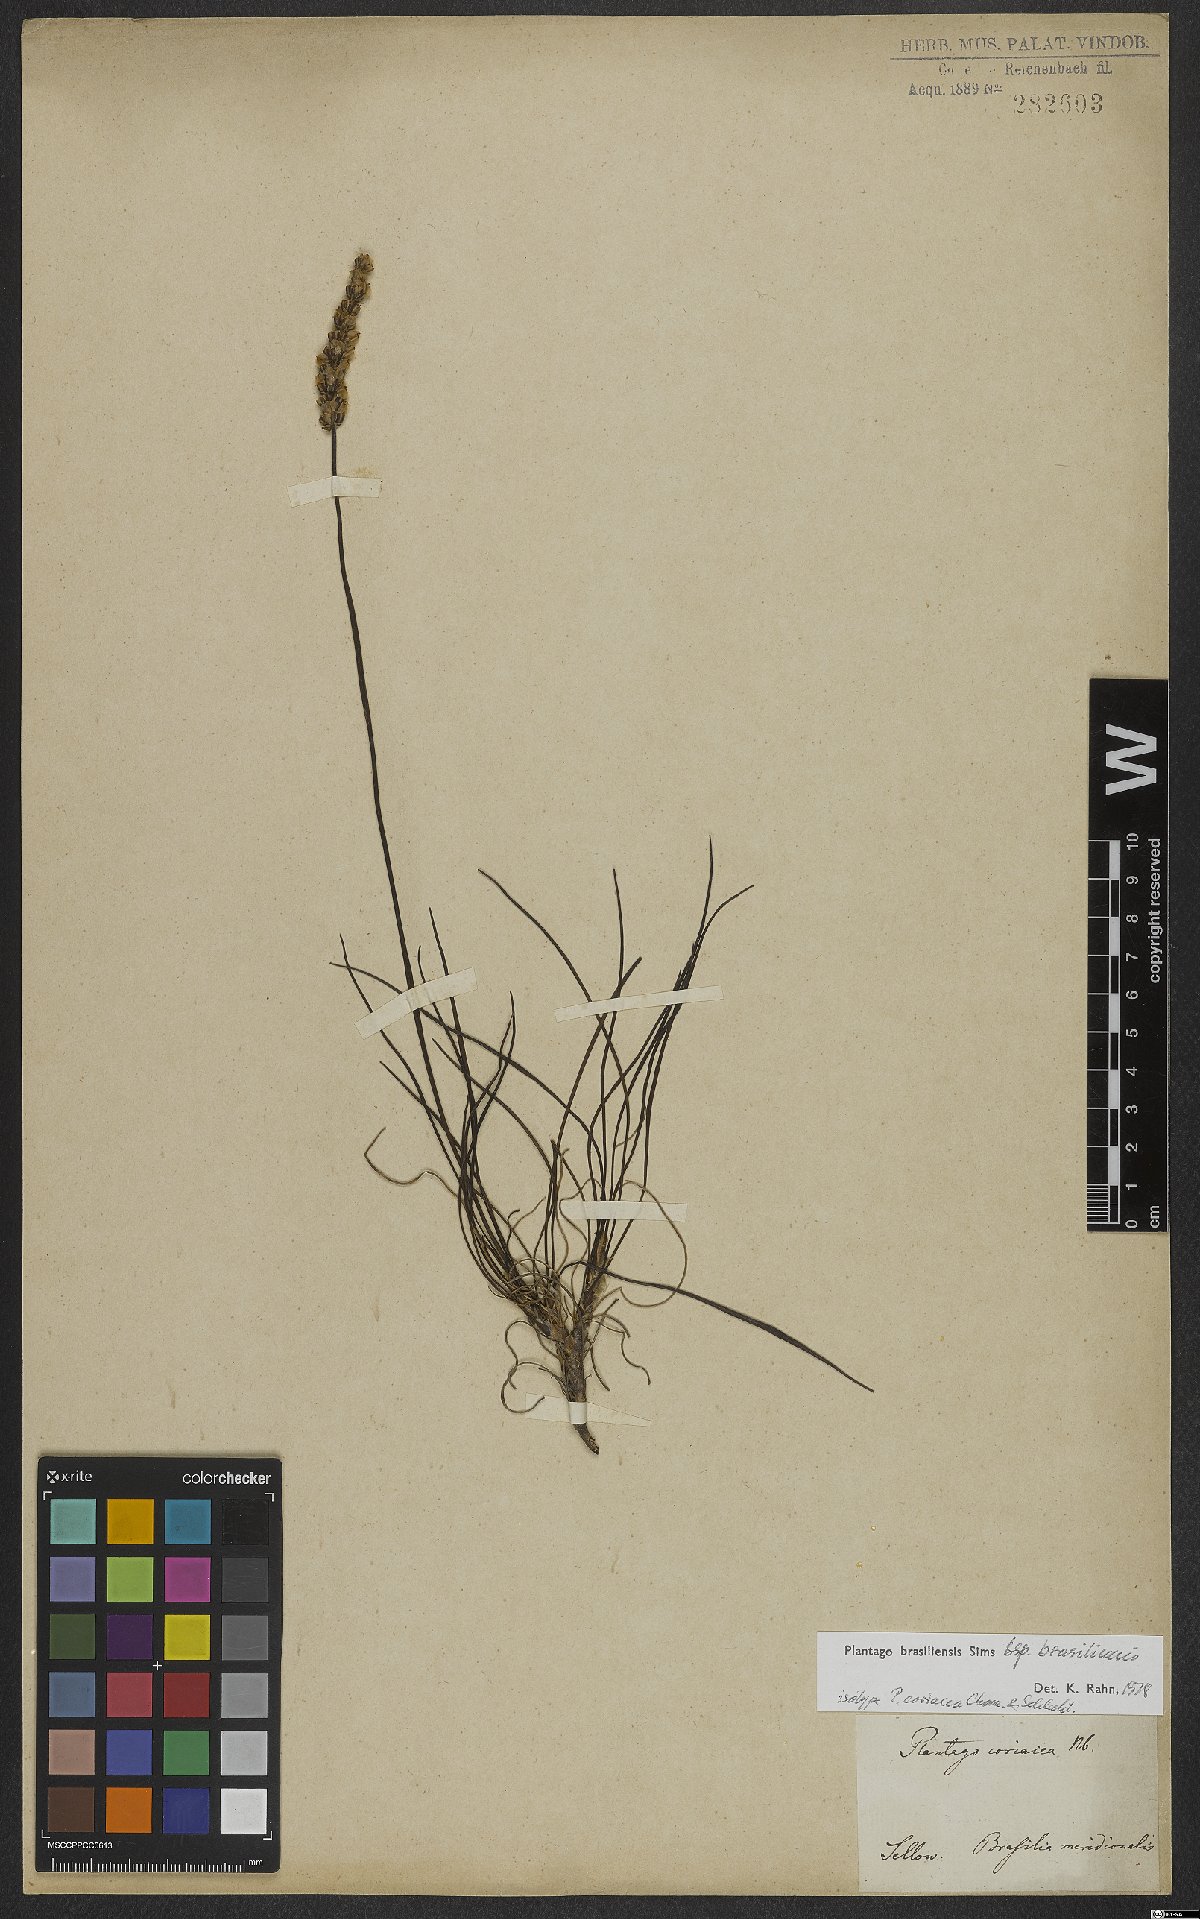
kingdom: Plantae
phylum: Tracheophyta
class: Magnoliopsida
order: Lamiales
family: Plantaginaceae
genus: Plantago
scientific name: Plantago brasiliensis
